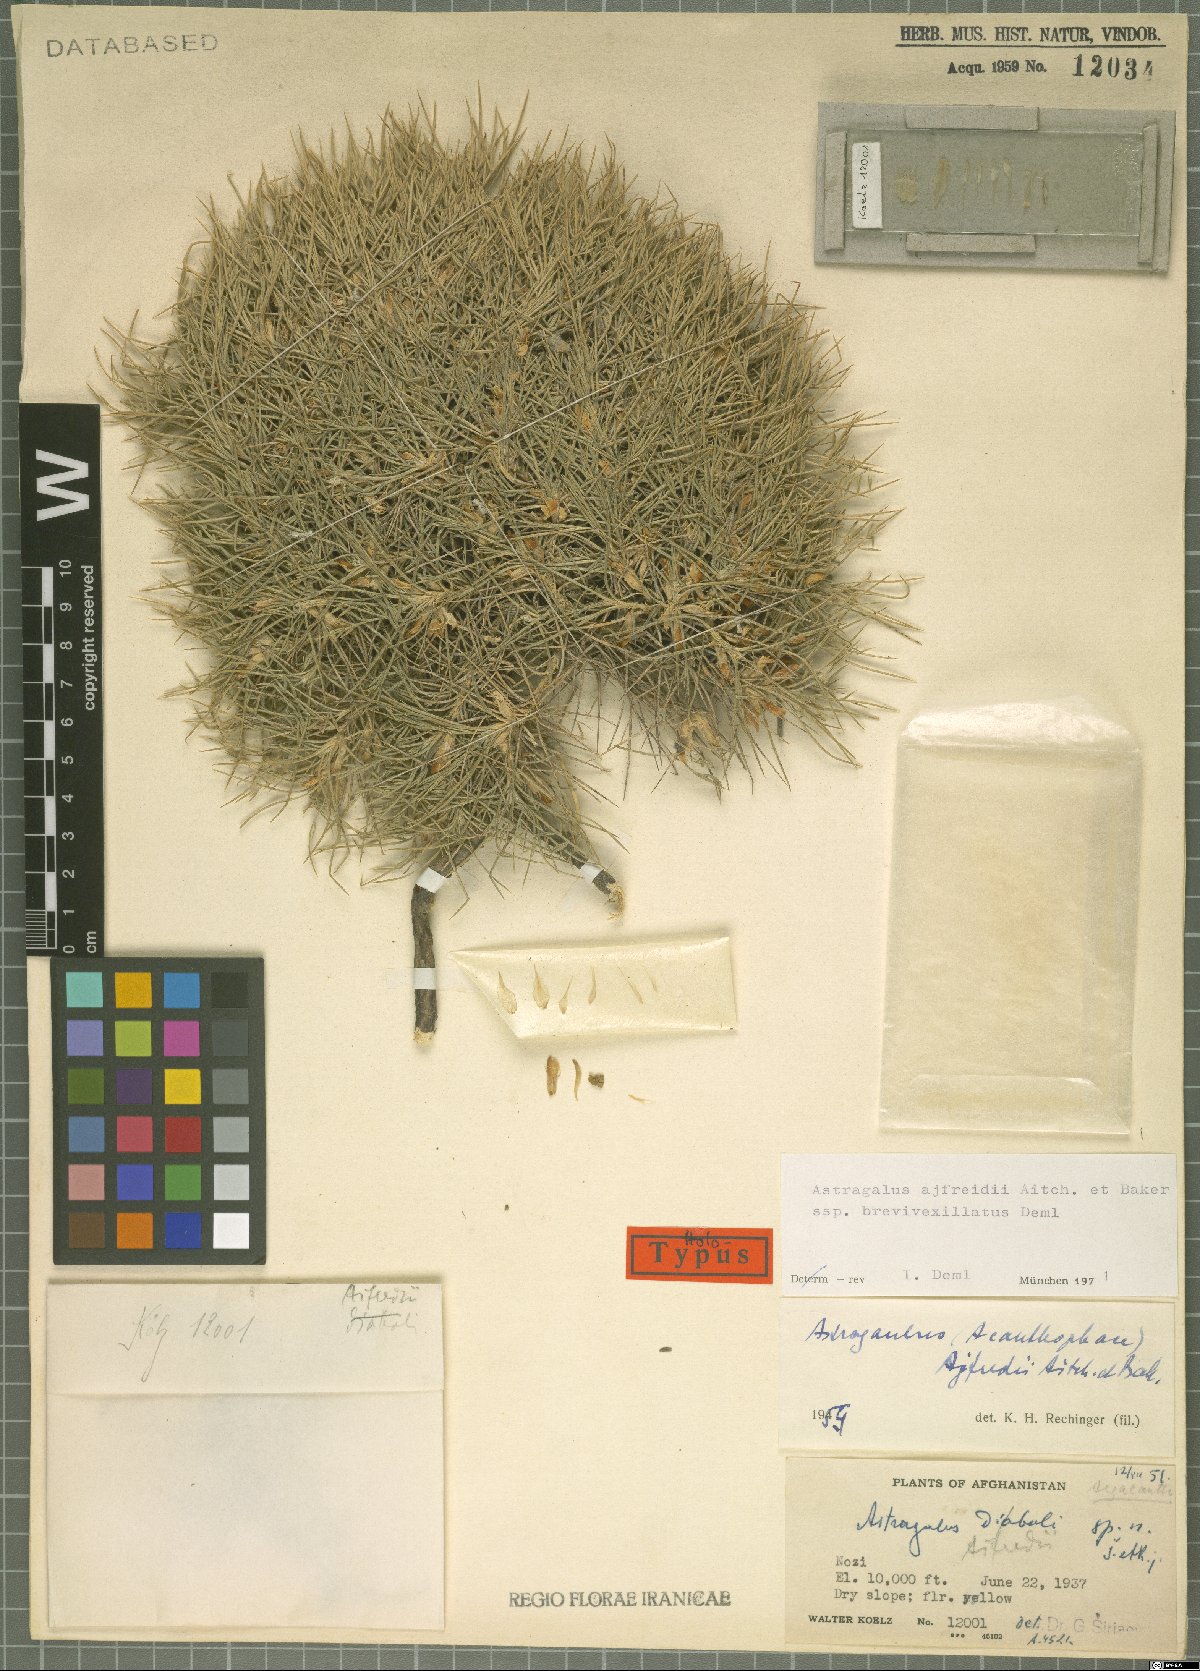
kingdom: Plantae
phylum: Tracheophyta
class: Magnoliopsida
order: Fabales
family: Fabaceae
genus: Astragalus
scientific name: Astragalus ajfreidii
